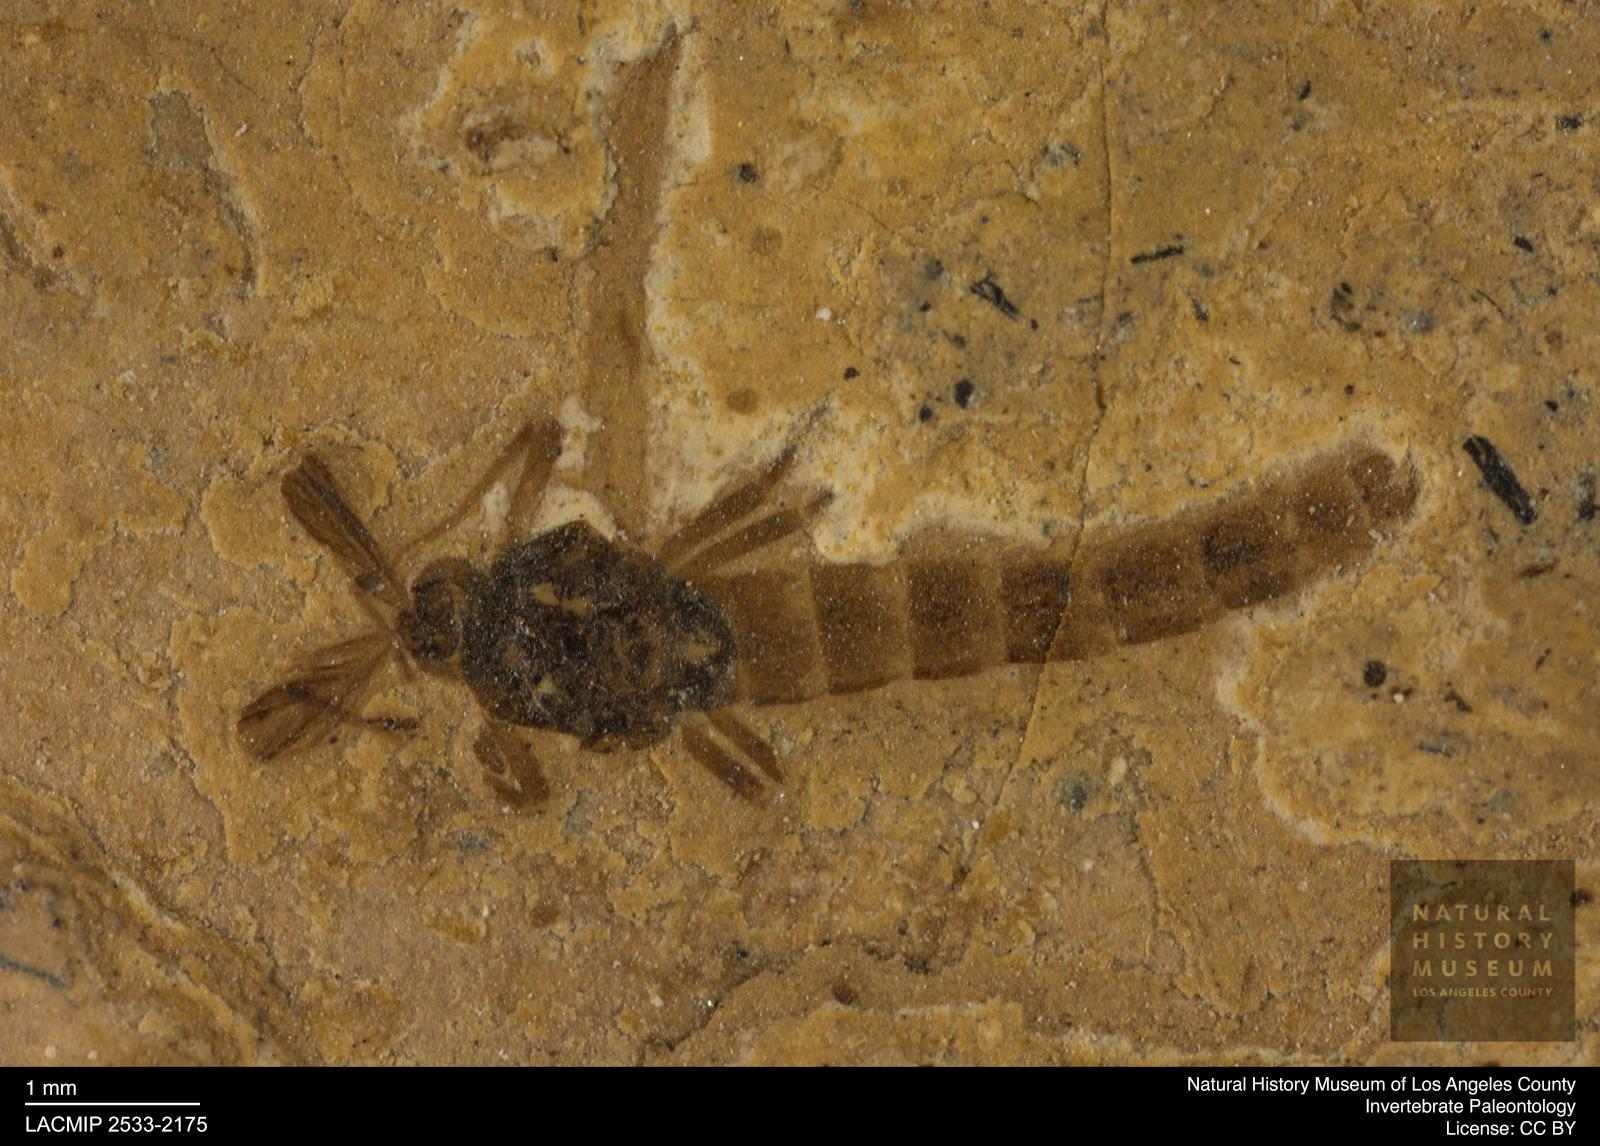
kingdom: Animalia
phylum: Arthropoda
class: Insecta
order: Diptera
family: Chironomidae
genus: Procladius
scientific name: Procladius
